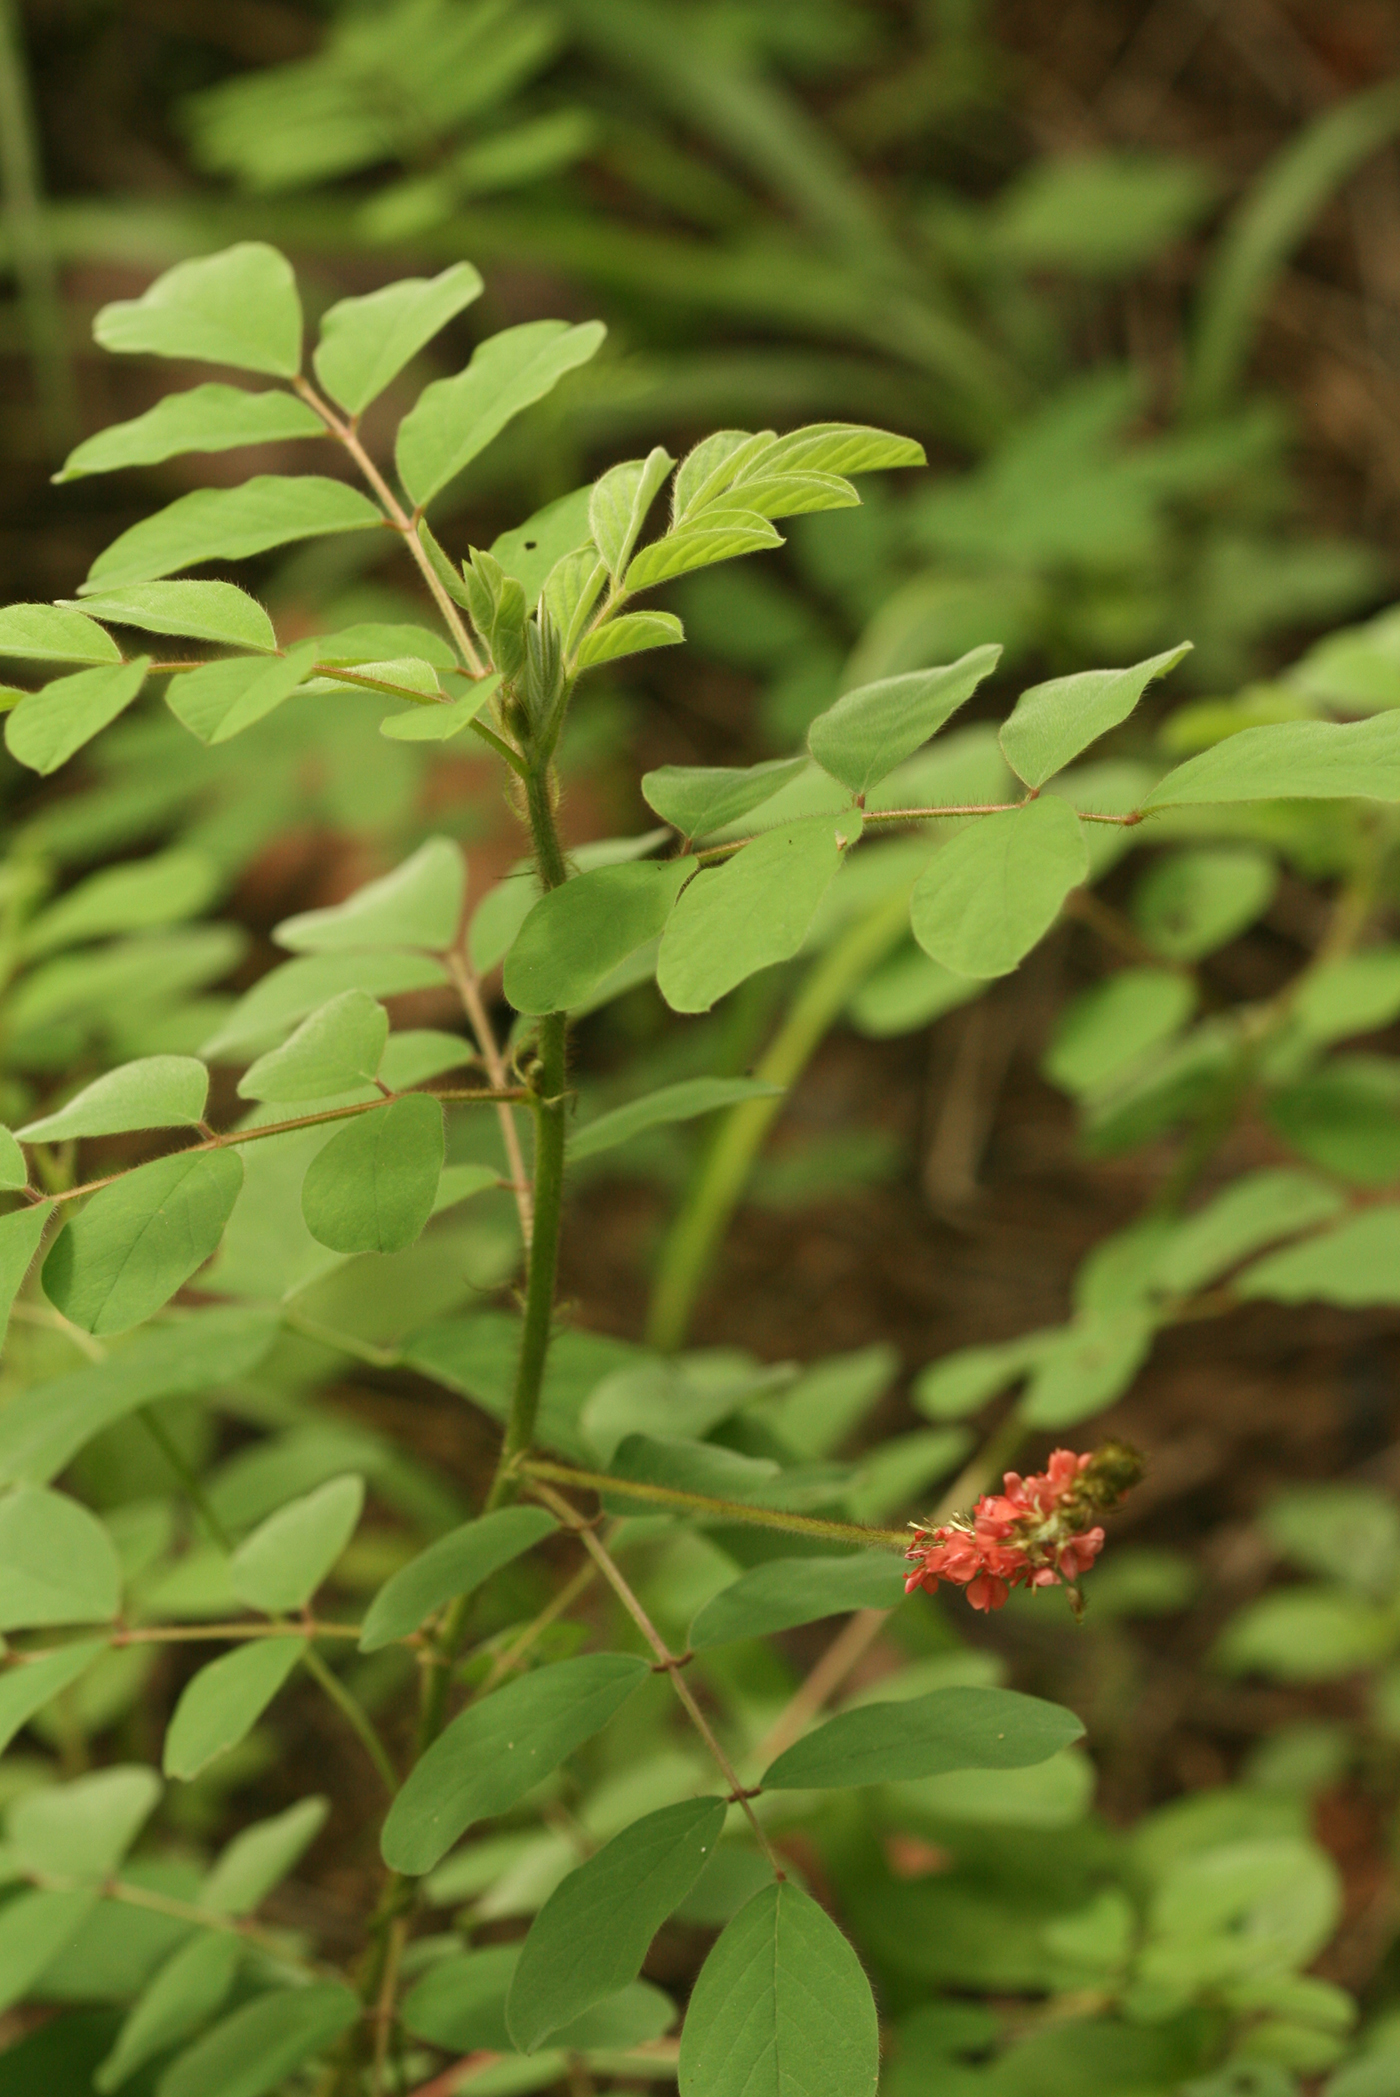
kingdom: Plantae
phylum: Tracheophyta
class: Magnoliopsida
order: Fabales
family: Fabaceae
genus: Indigofera
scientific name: Indigofera hirsuta
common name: Hairy indigo
